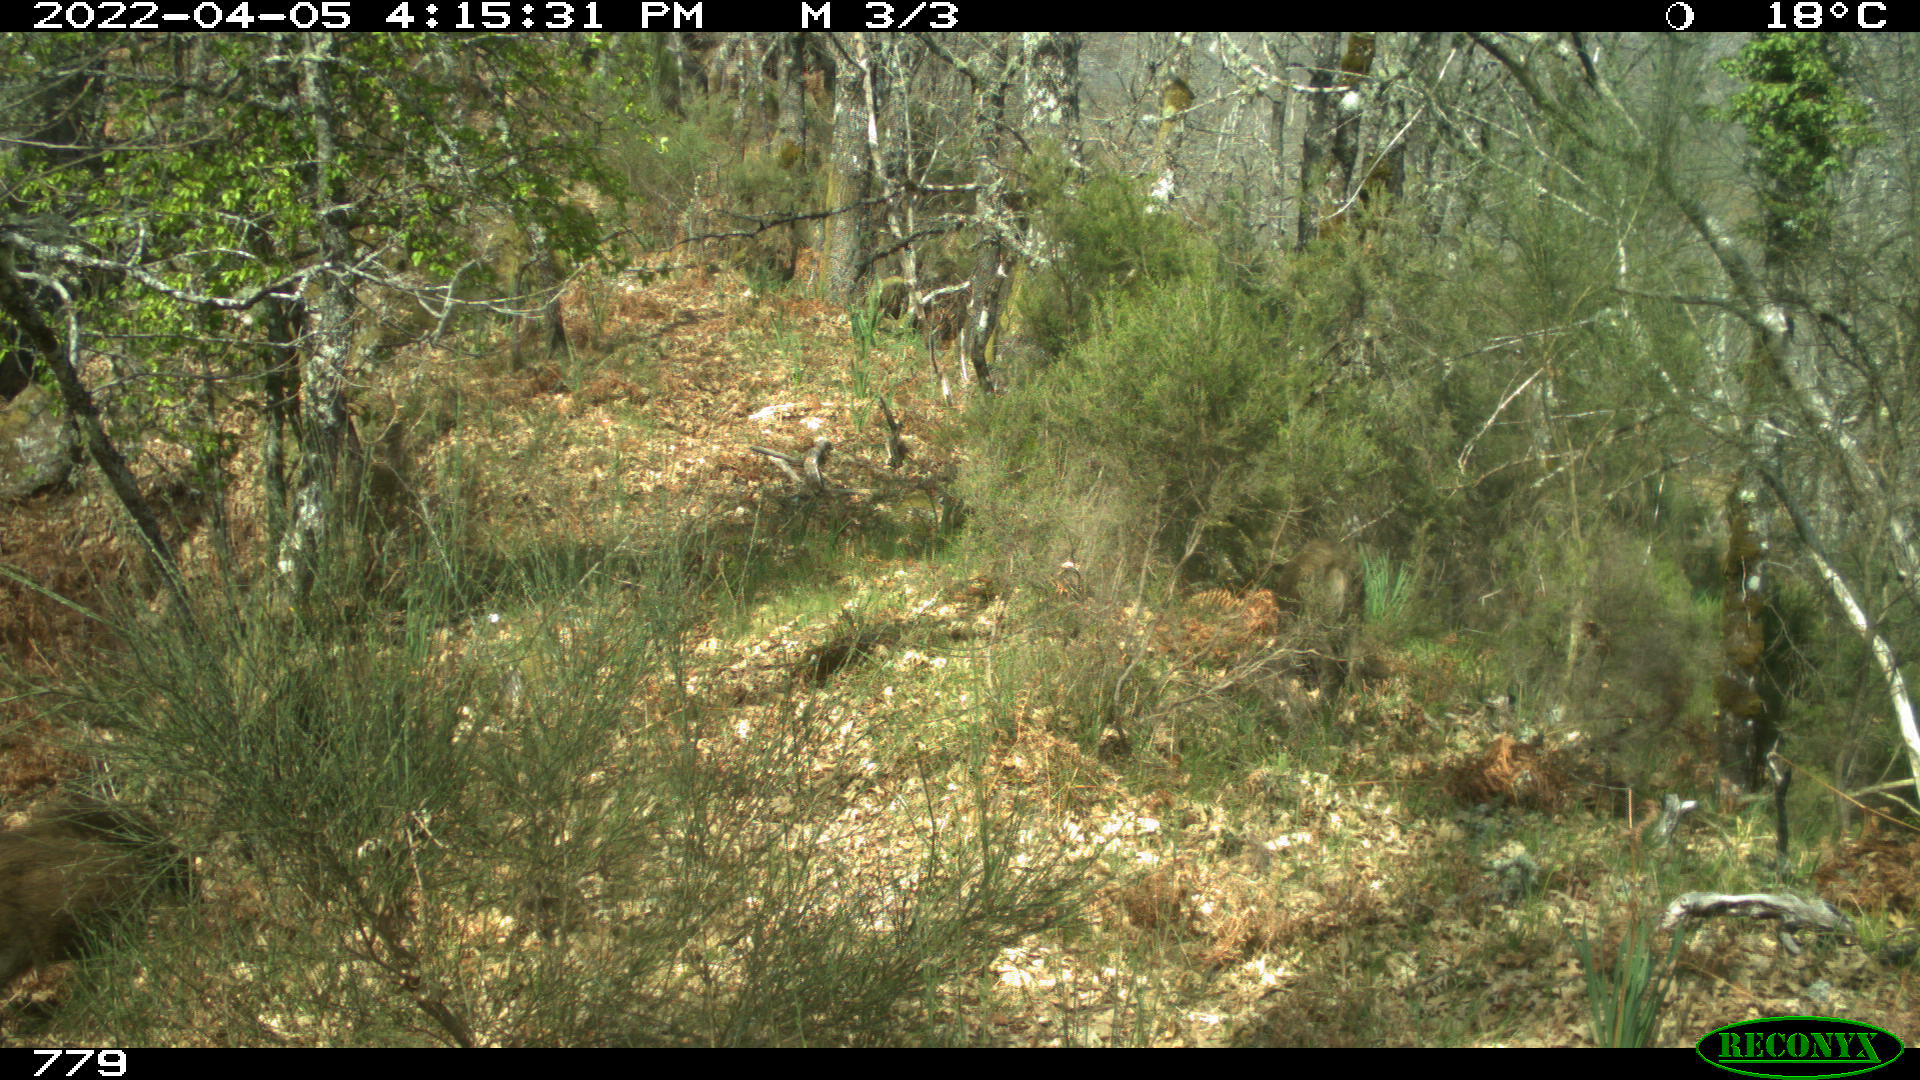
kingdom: Animalia
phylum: Chordata
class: Mammalia
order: Artiodactyla
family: Suidae
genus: Sus
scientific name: Sus scrofa
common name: Wild boar
